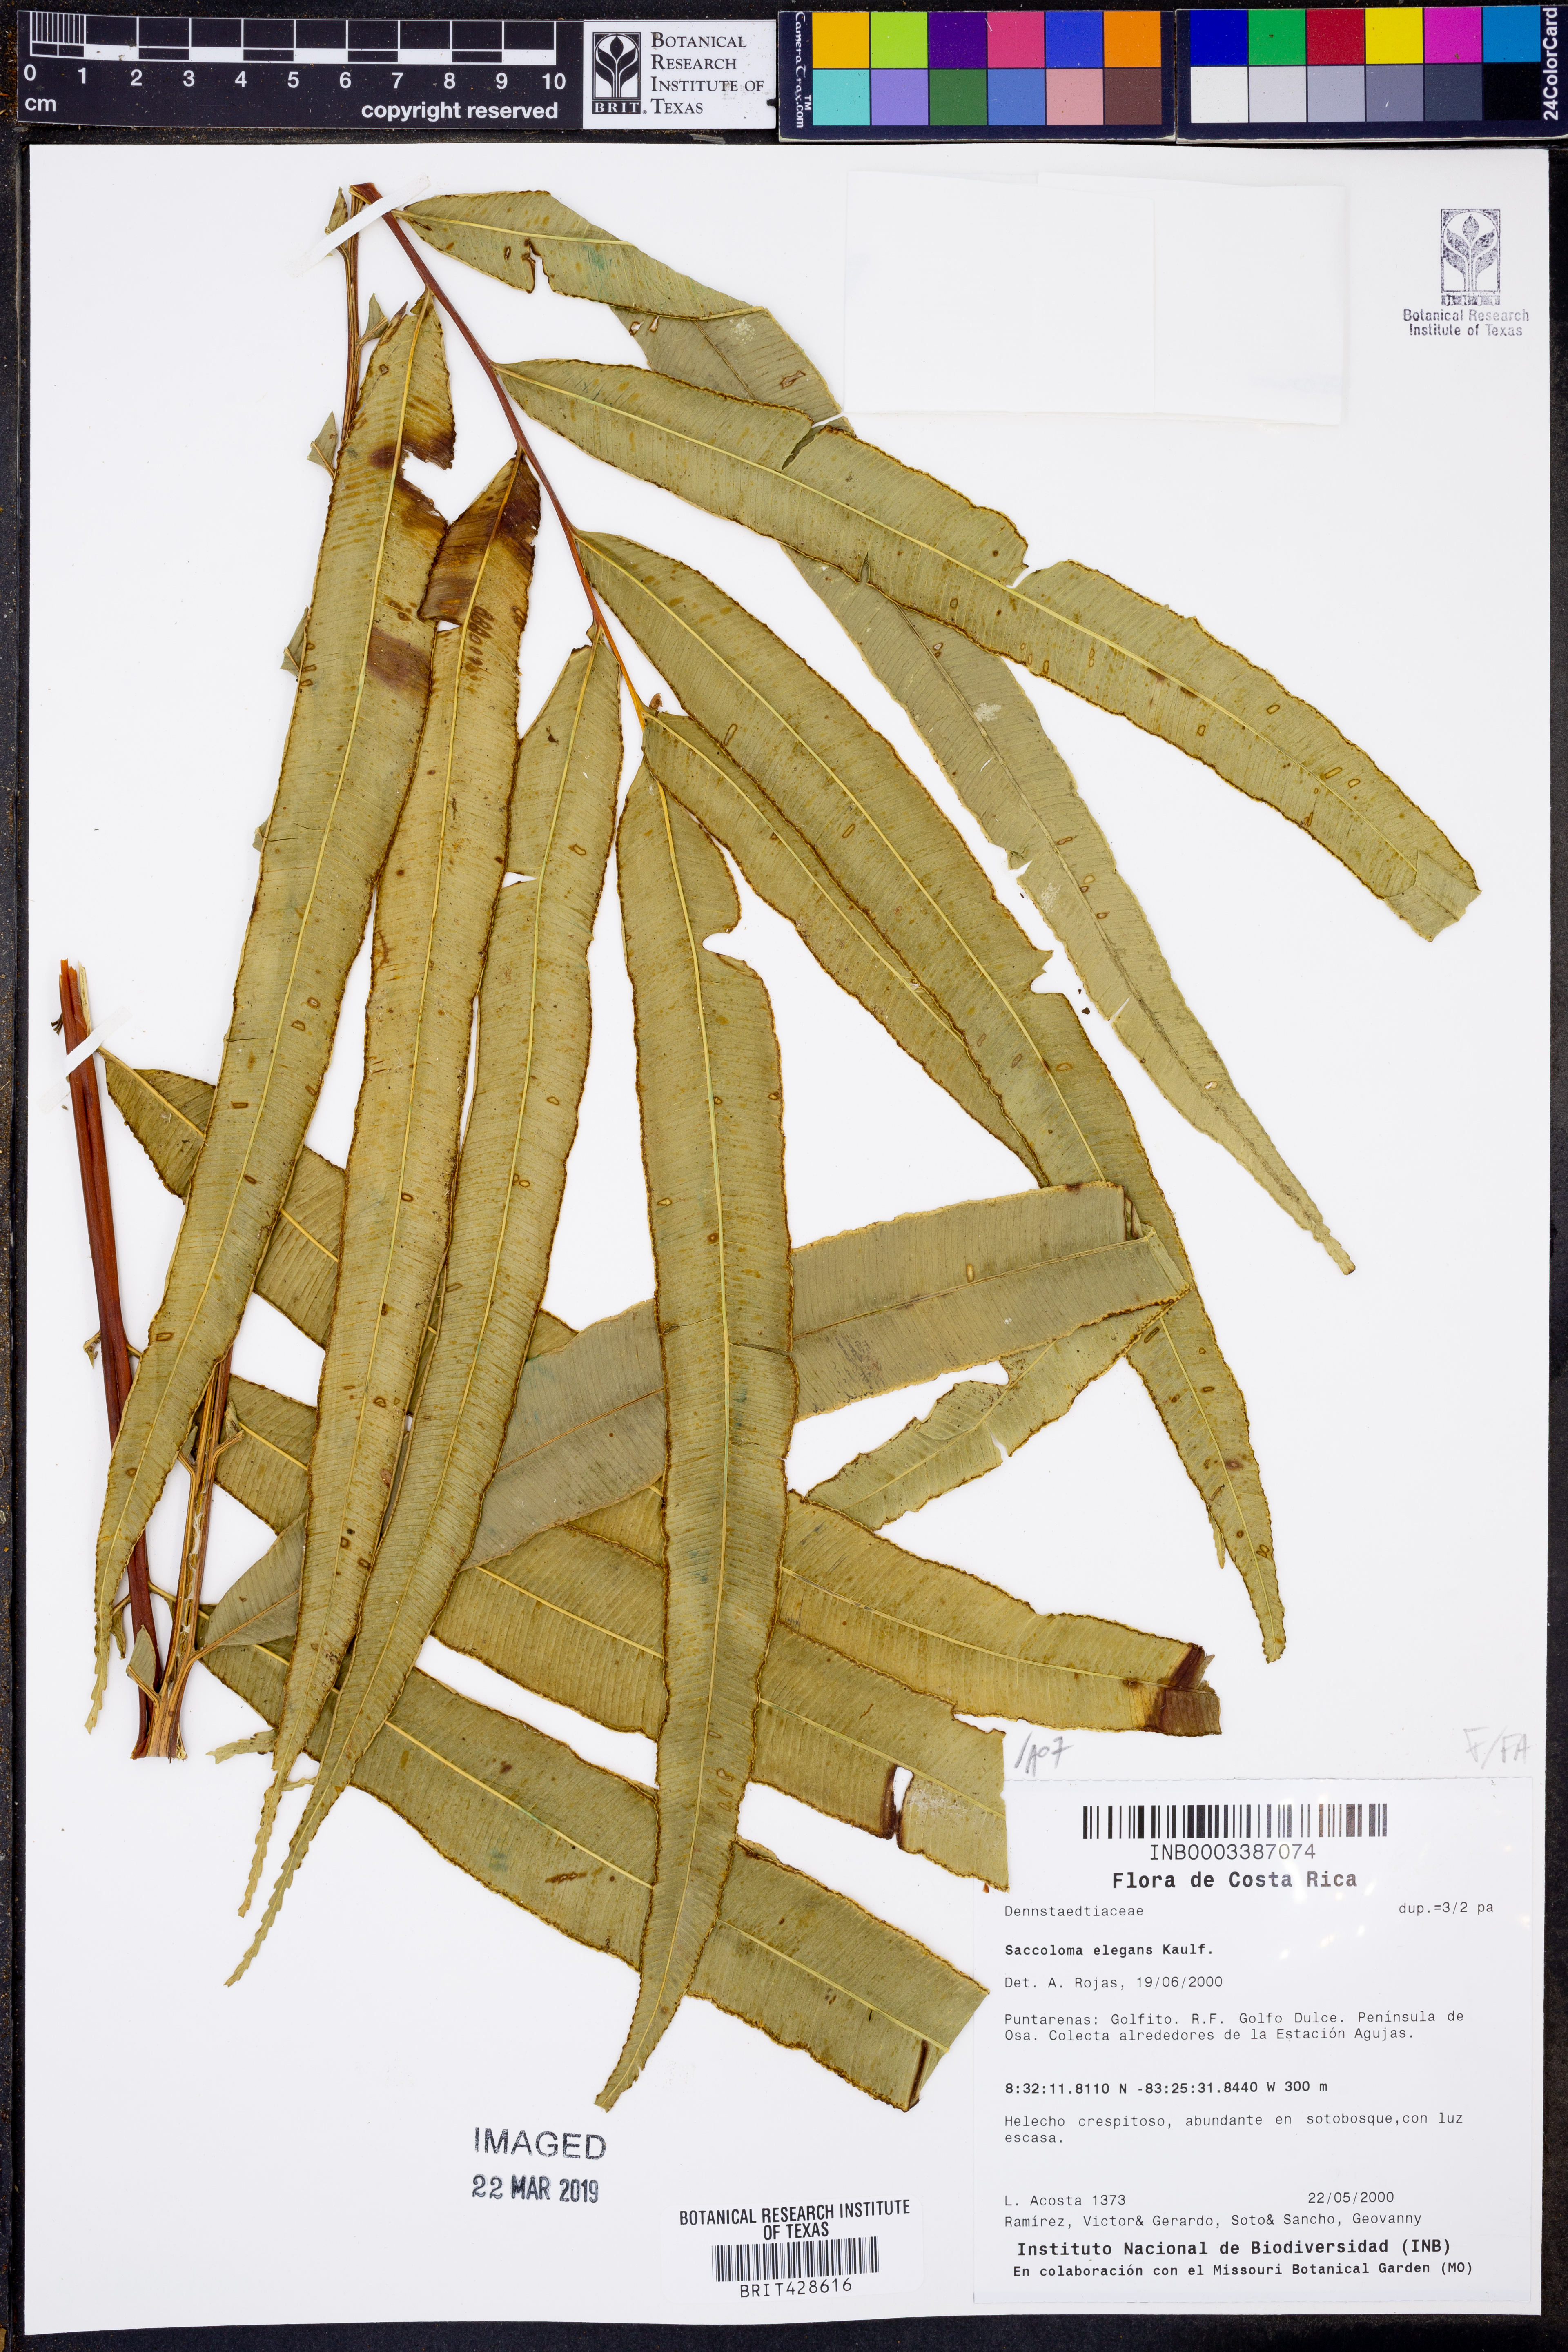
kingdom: Plantae
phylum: Tracheophyta
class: Polypodiopsida
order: Polypodiales
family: Saccolomataceae
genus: Saccoloma
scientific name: Saccoloma elegans
